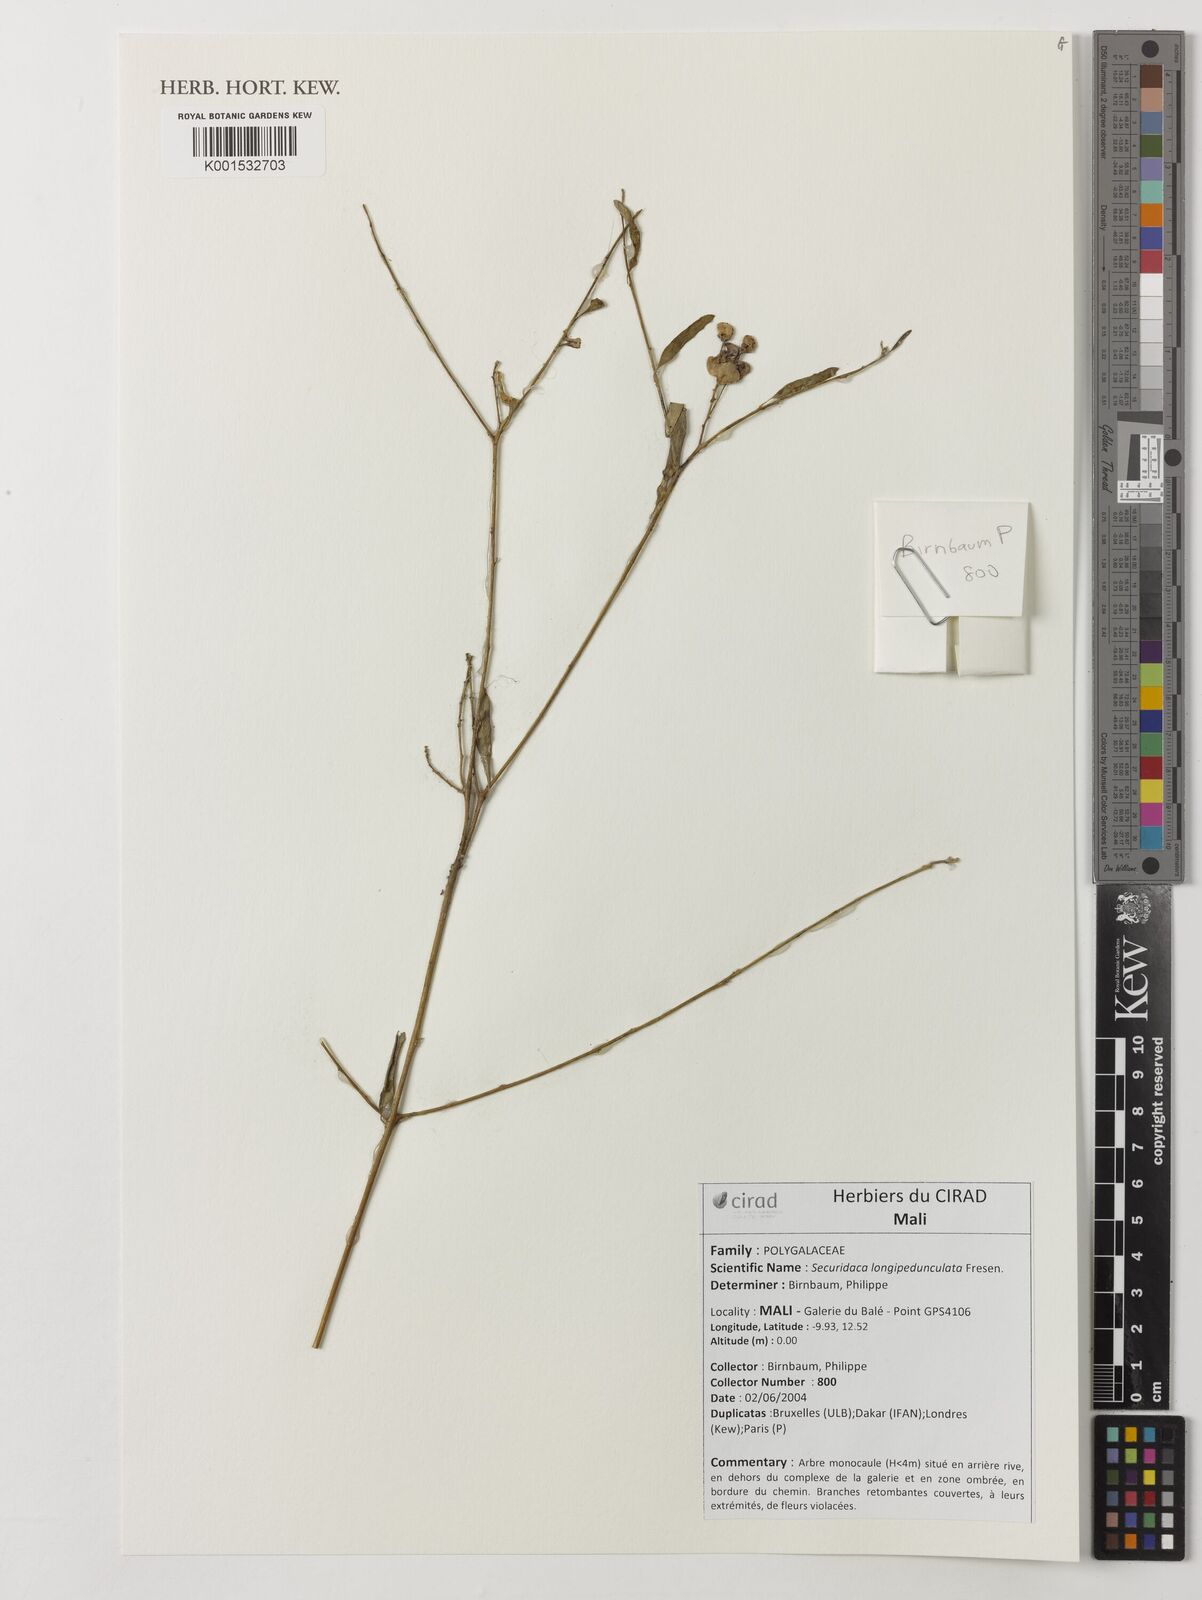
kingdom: Plantae
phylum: Tracheophyta
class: Magnoliopsida
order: Fabales
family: Polygalaceae
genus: Securidaca
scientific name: Securidaca longepedunculata
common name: Violet tree
